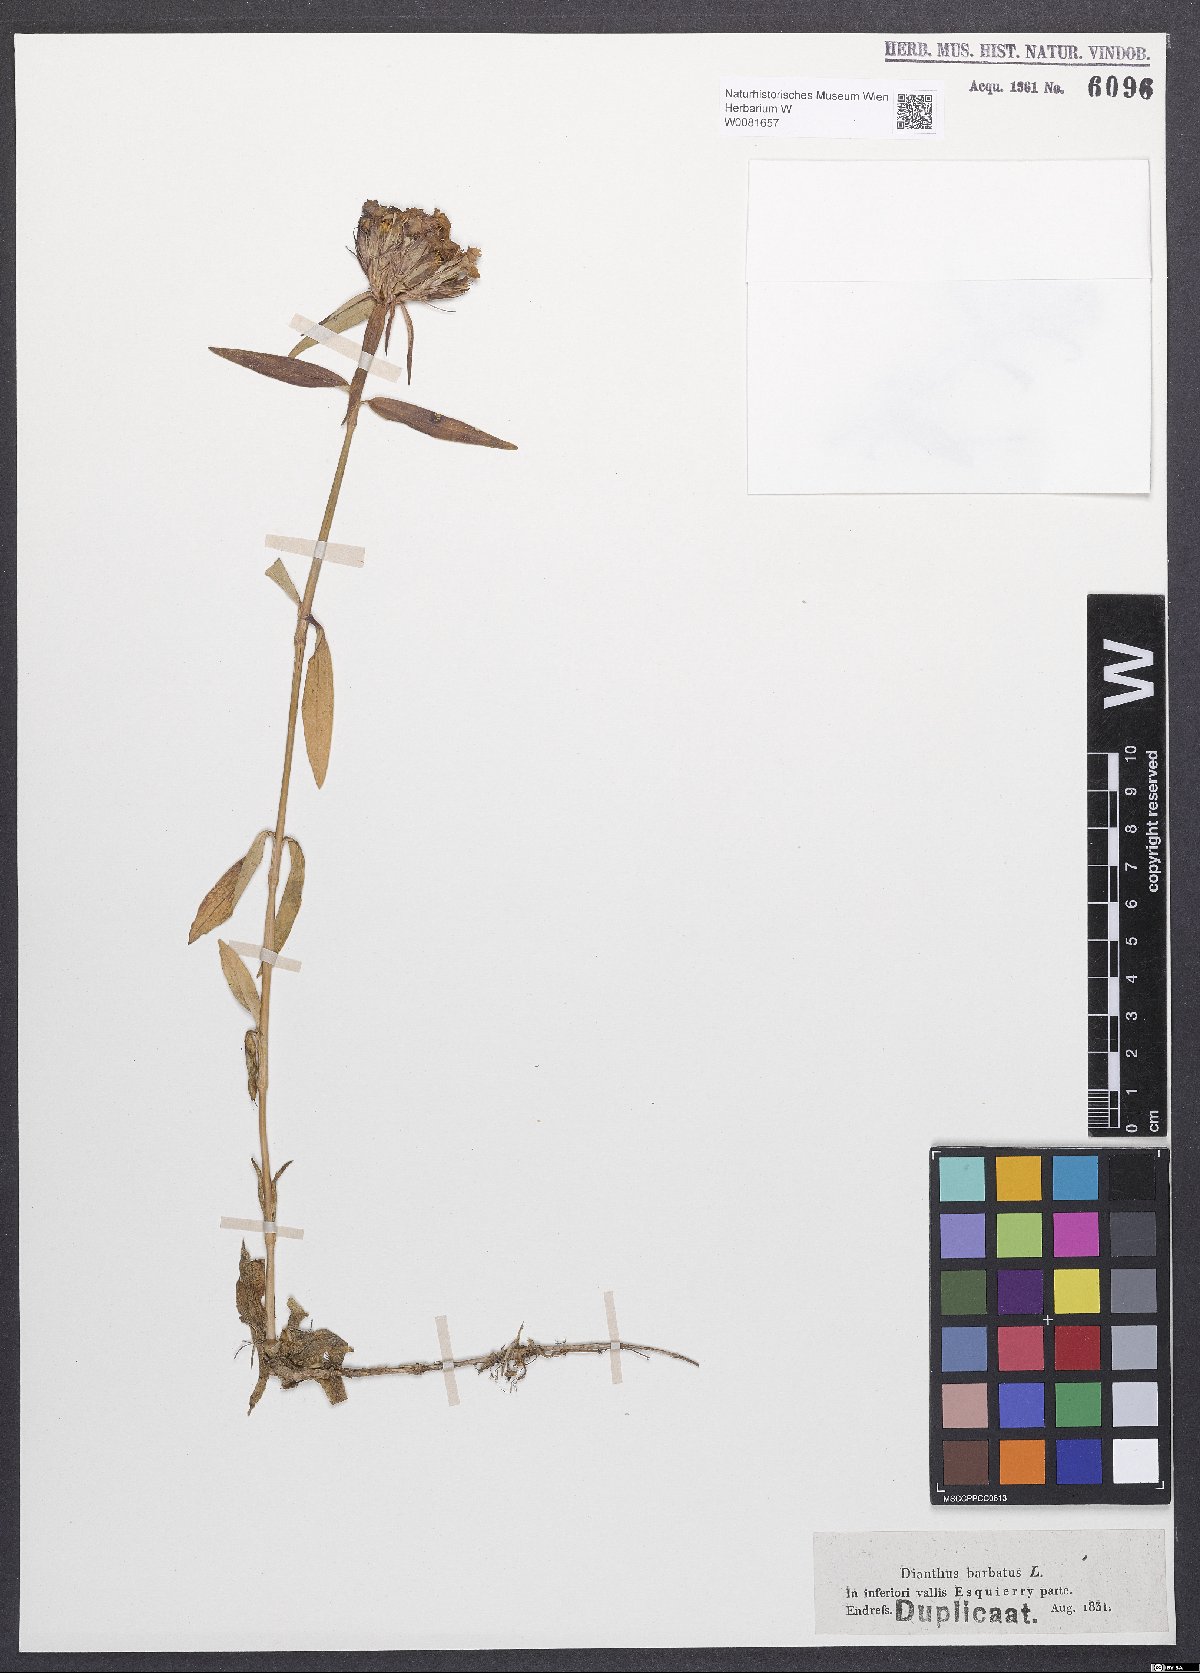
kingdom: Plantae
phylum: Tracheophyta
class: Magnoliopsida
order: Caryophyllales
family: Caryophyllaceae
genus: Dianthus
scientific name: Dianthus barbatus
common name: Sweet-william
